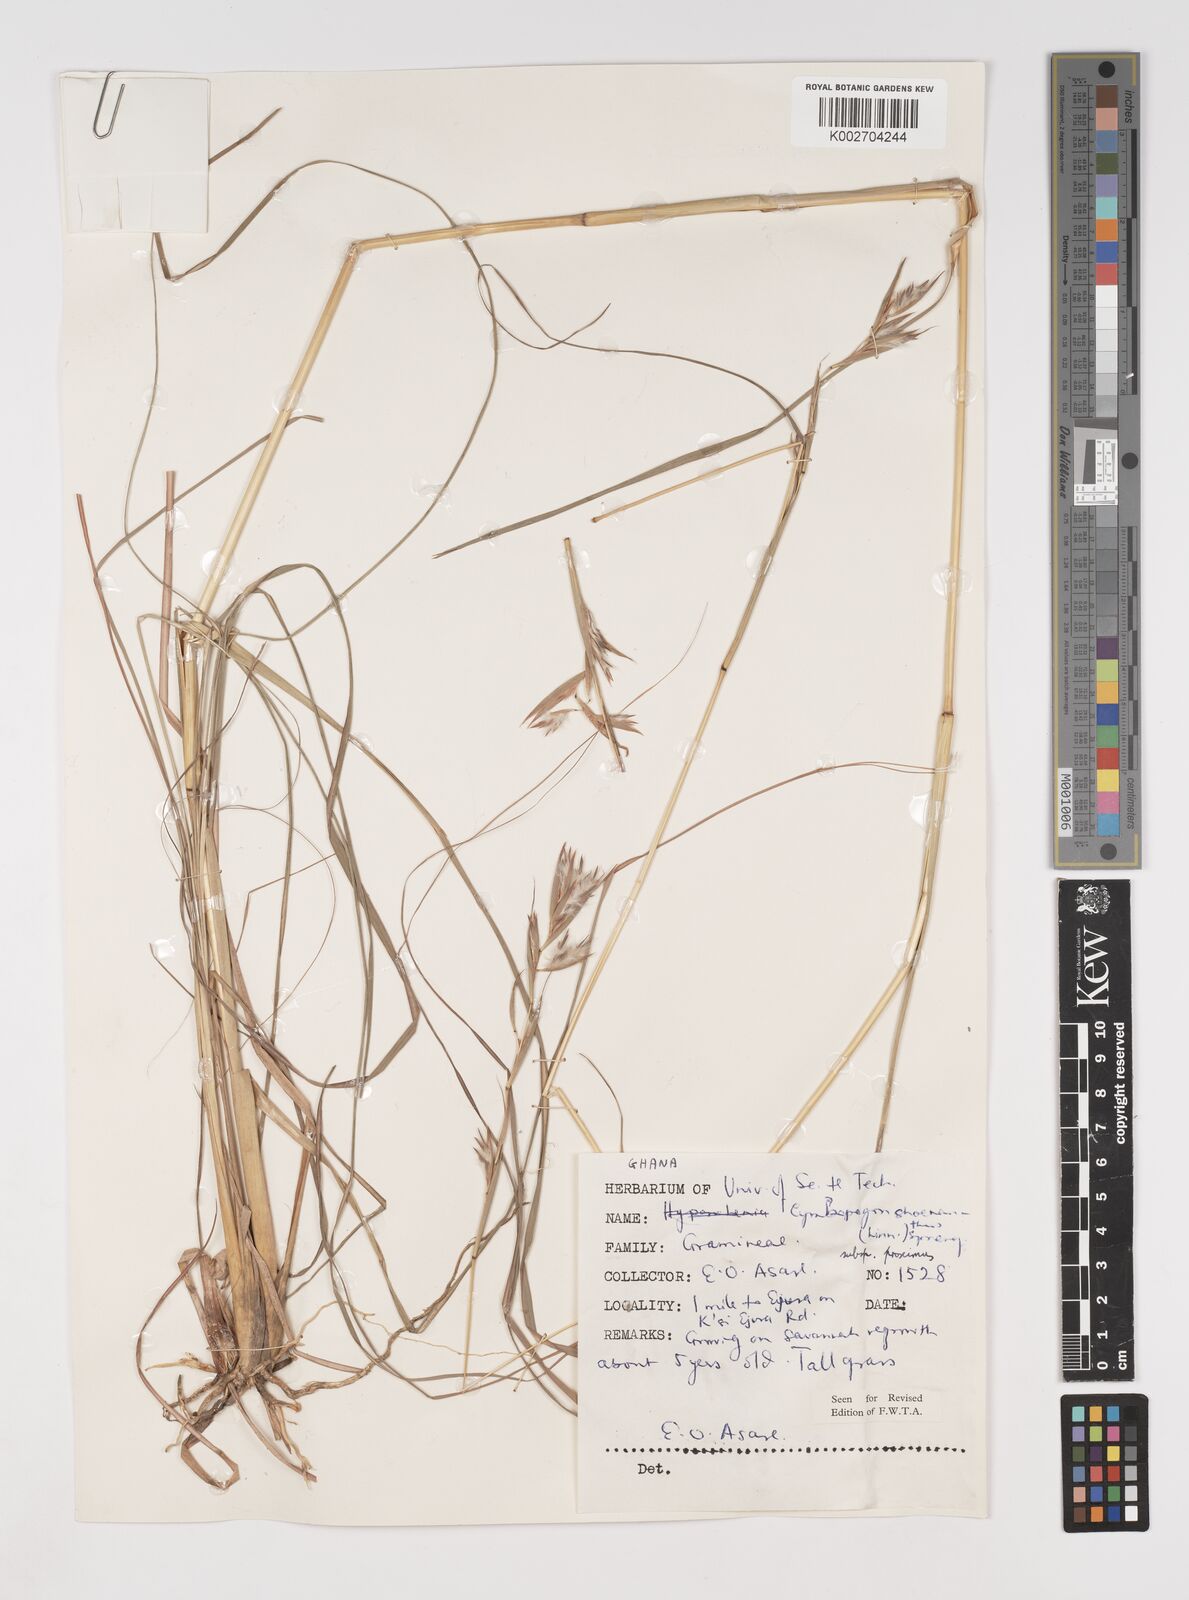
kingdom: Plantae
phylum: Tracheophyta
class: Liliopsida
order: Poales
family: Poaceae
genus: Cymbopogon
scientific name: Cymbopogon schoenanthus
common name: Geranium grass
